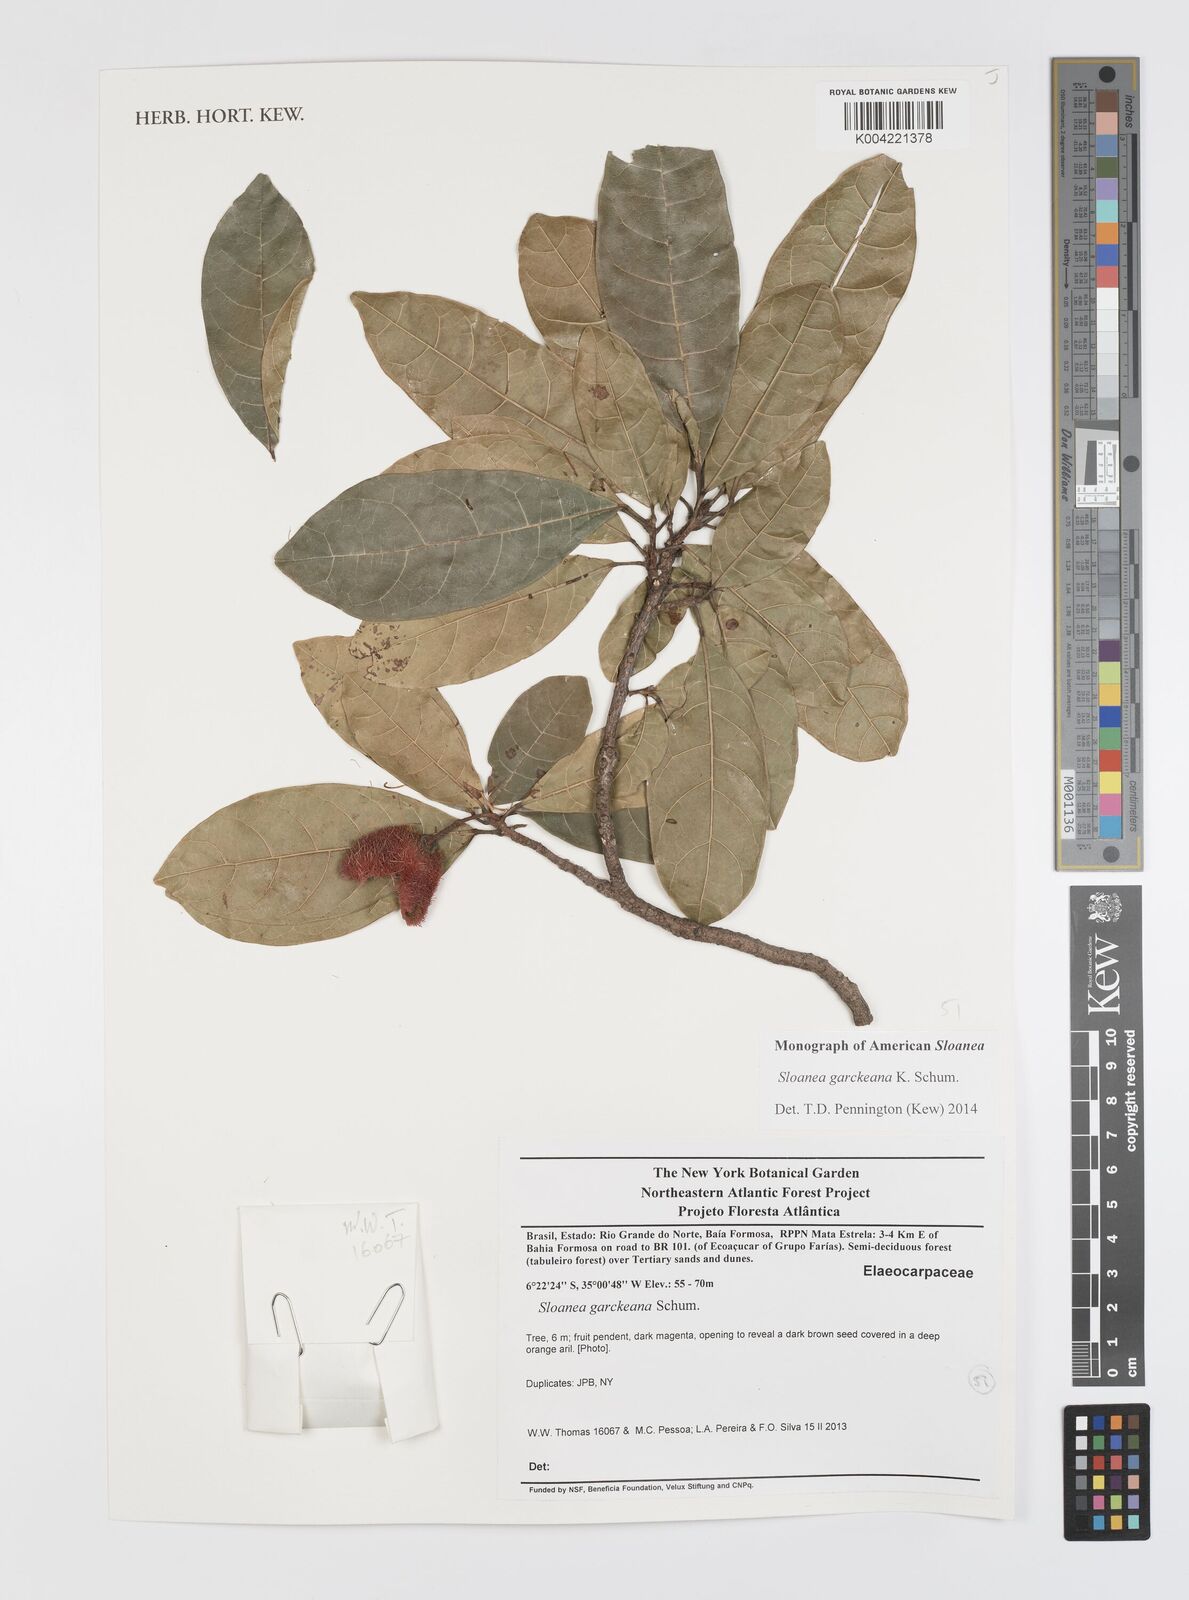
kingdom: Plantae
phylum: Tracheophyta
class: Magnoliopsida
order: Oxalidales
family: Elaeocarpaceae
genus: Sloanea
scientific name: Sloanea garckeana
